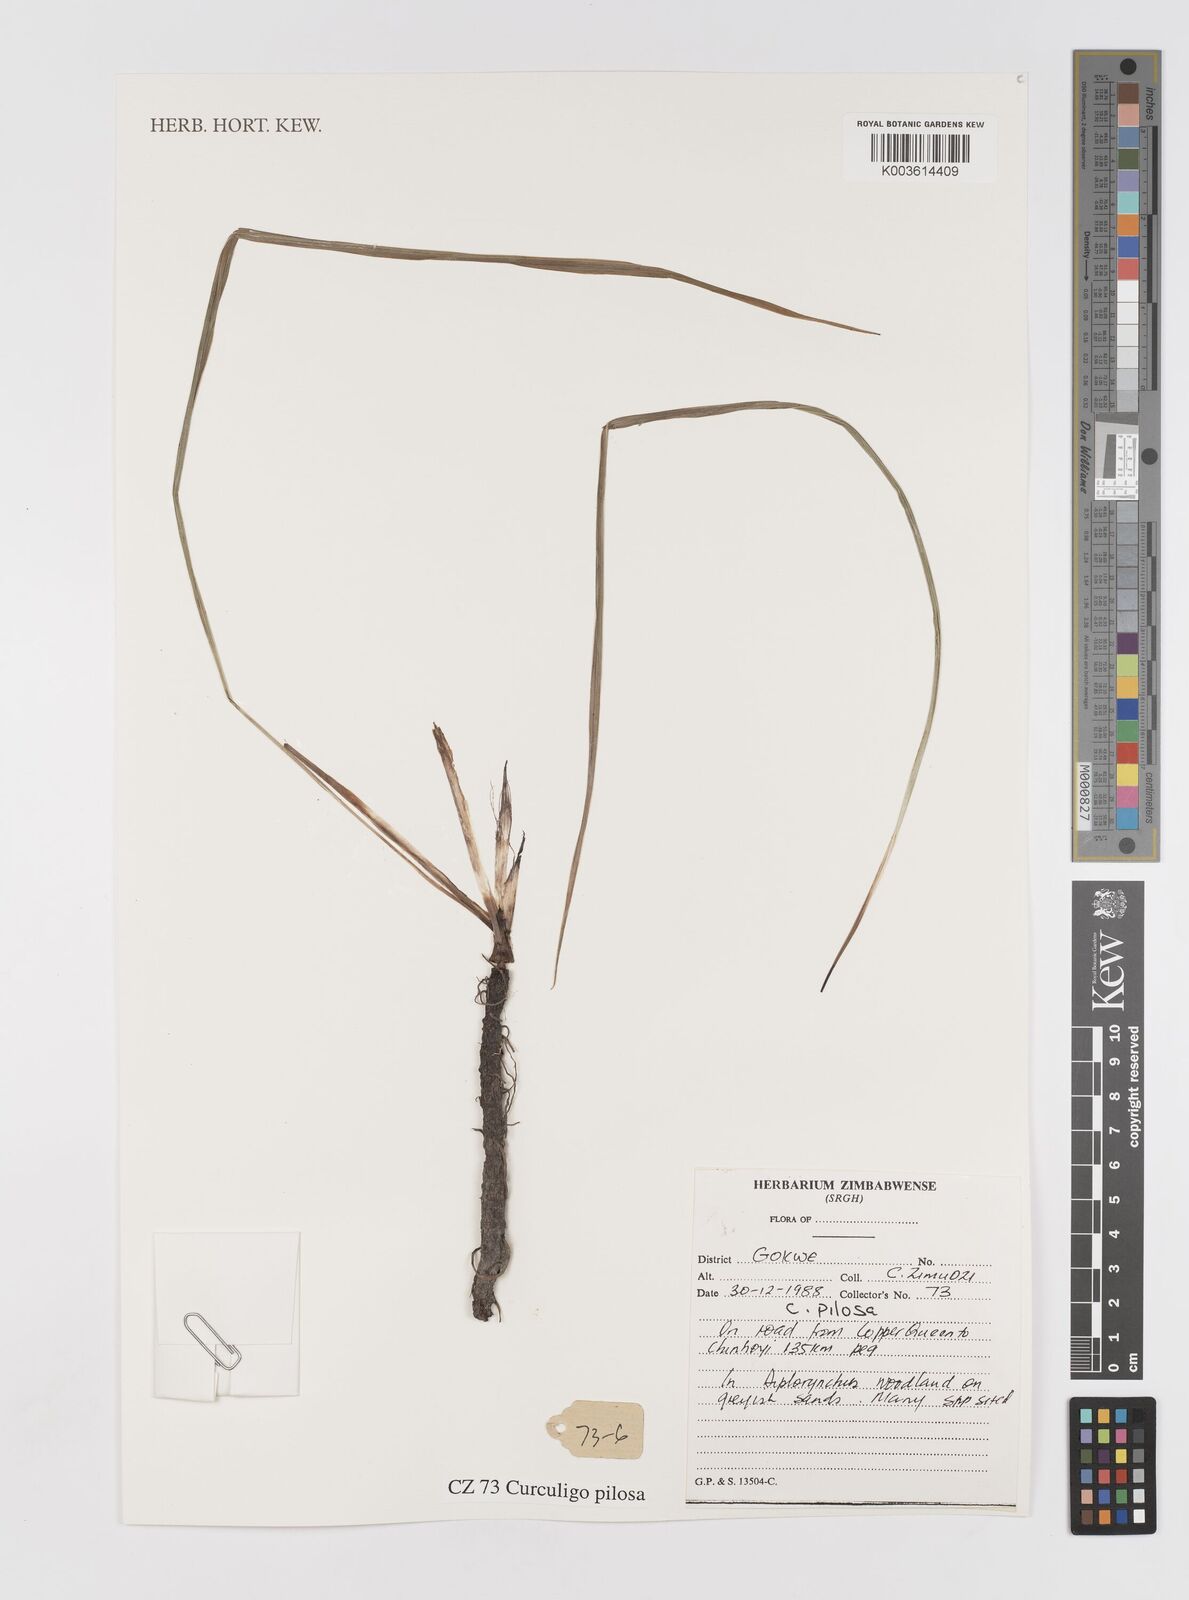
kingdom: Plantae
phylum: Tracheophyta
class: Liliopsida
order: Asparagales
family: Hypoxidaceae
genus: Curculigo
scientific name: Curculigo pilosa
